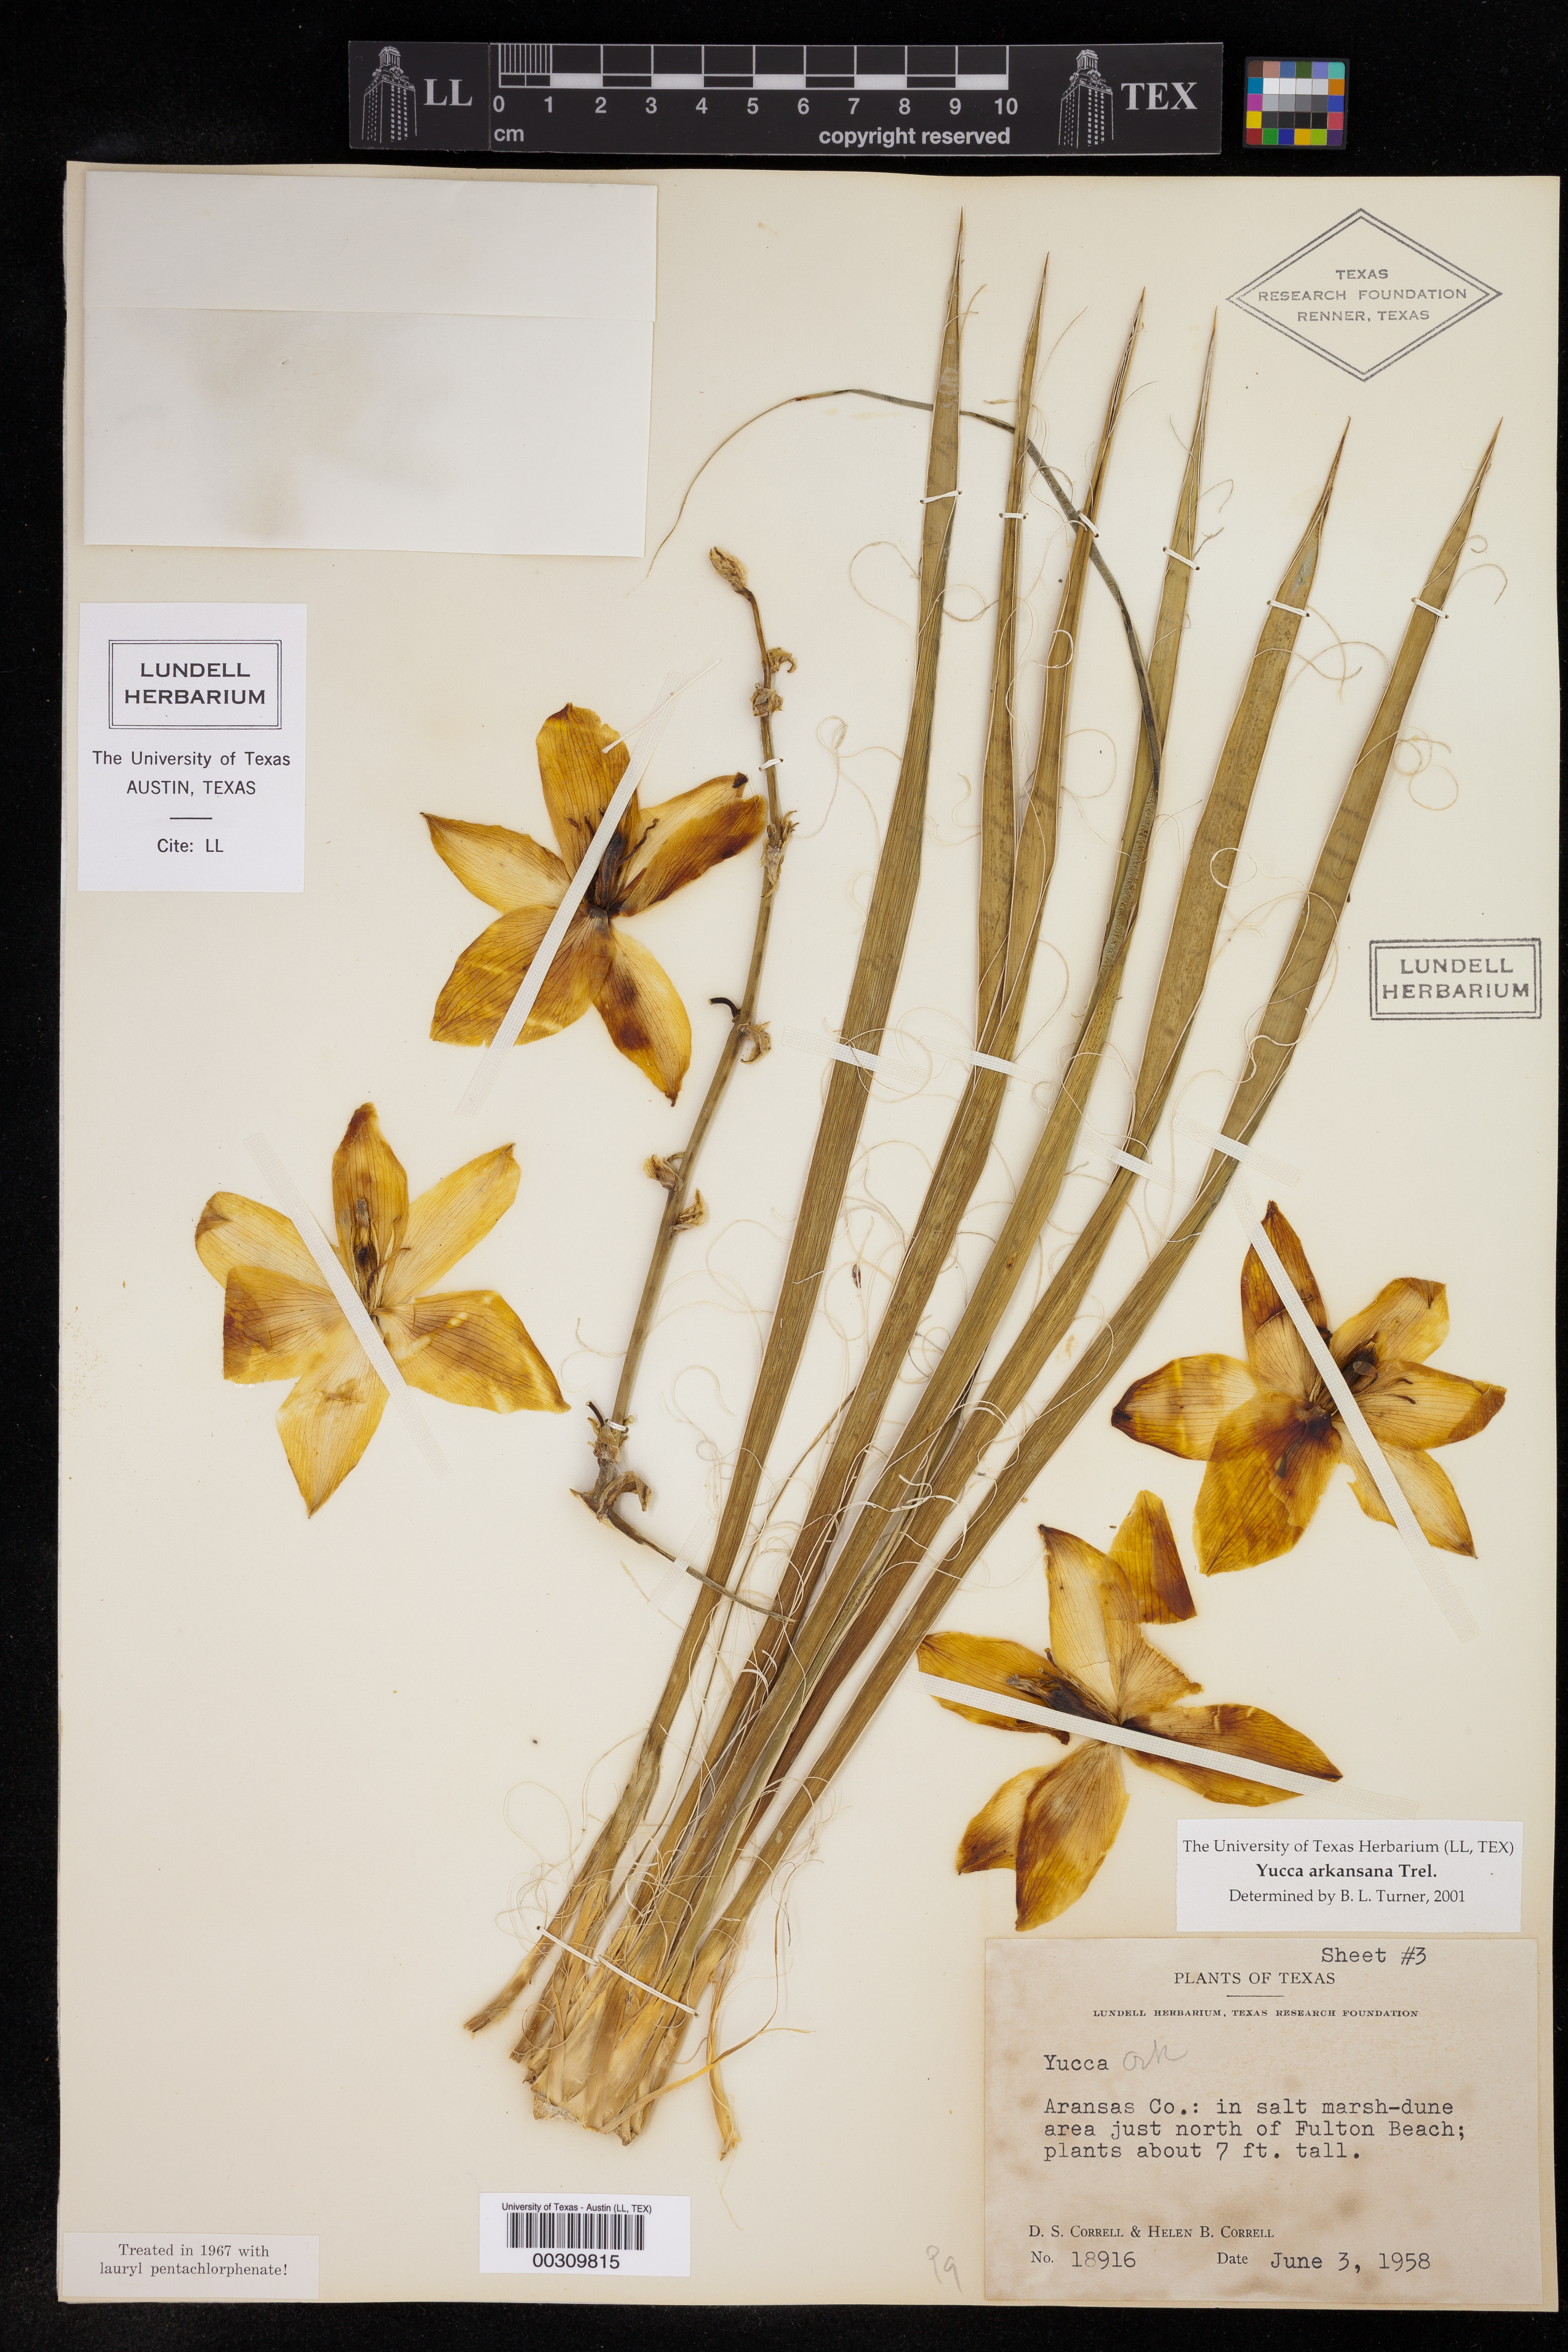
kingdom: Plantae
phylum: Tracheophyta
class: Liliopsida
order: Asparagales
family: Asparagaceae
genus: Yucca
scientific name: Yucca arkansana
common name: Arkansas yucca
